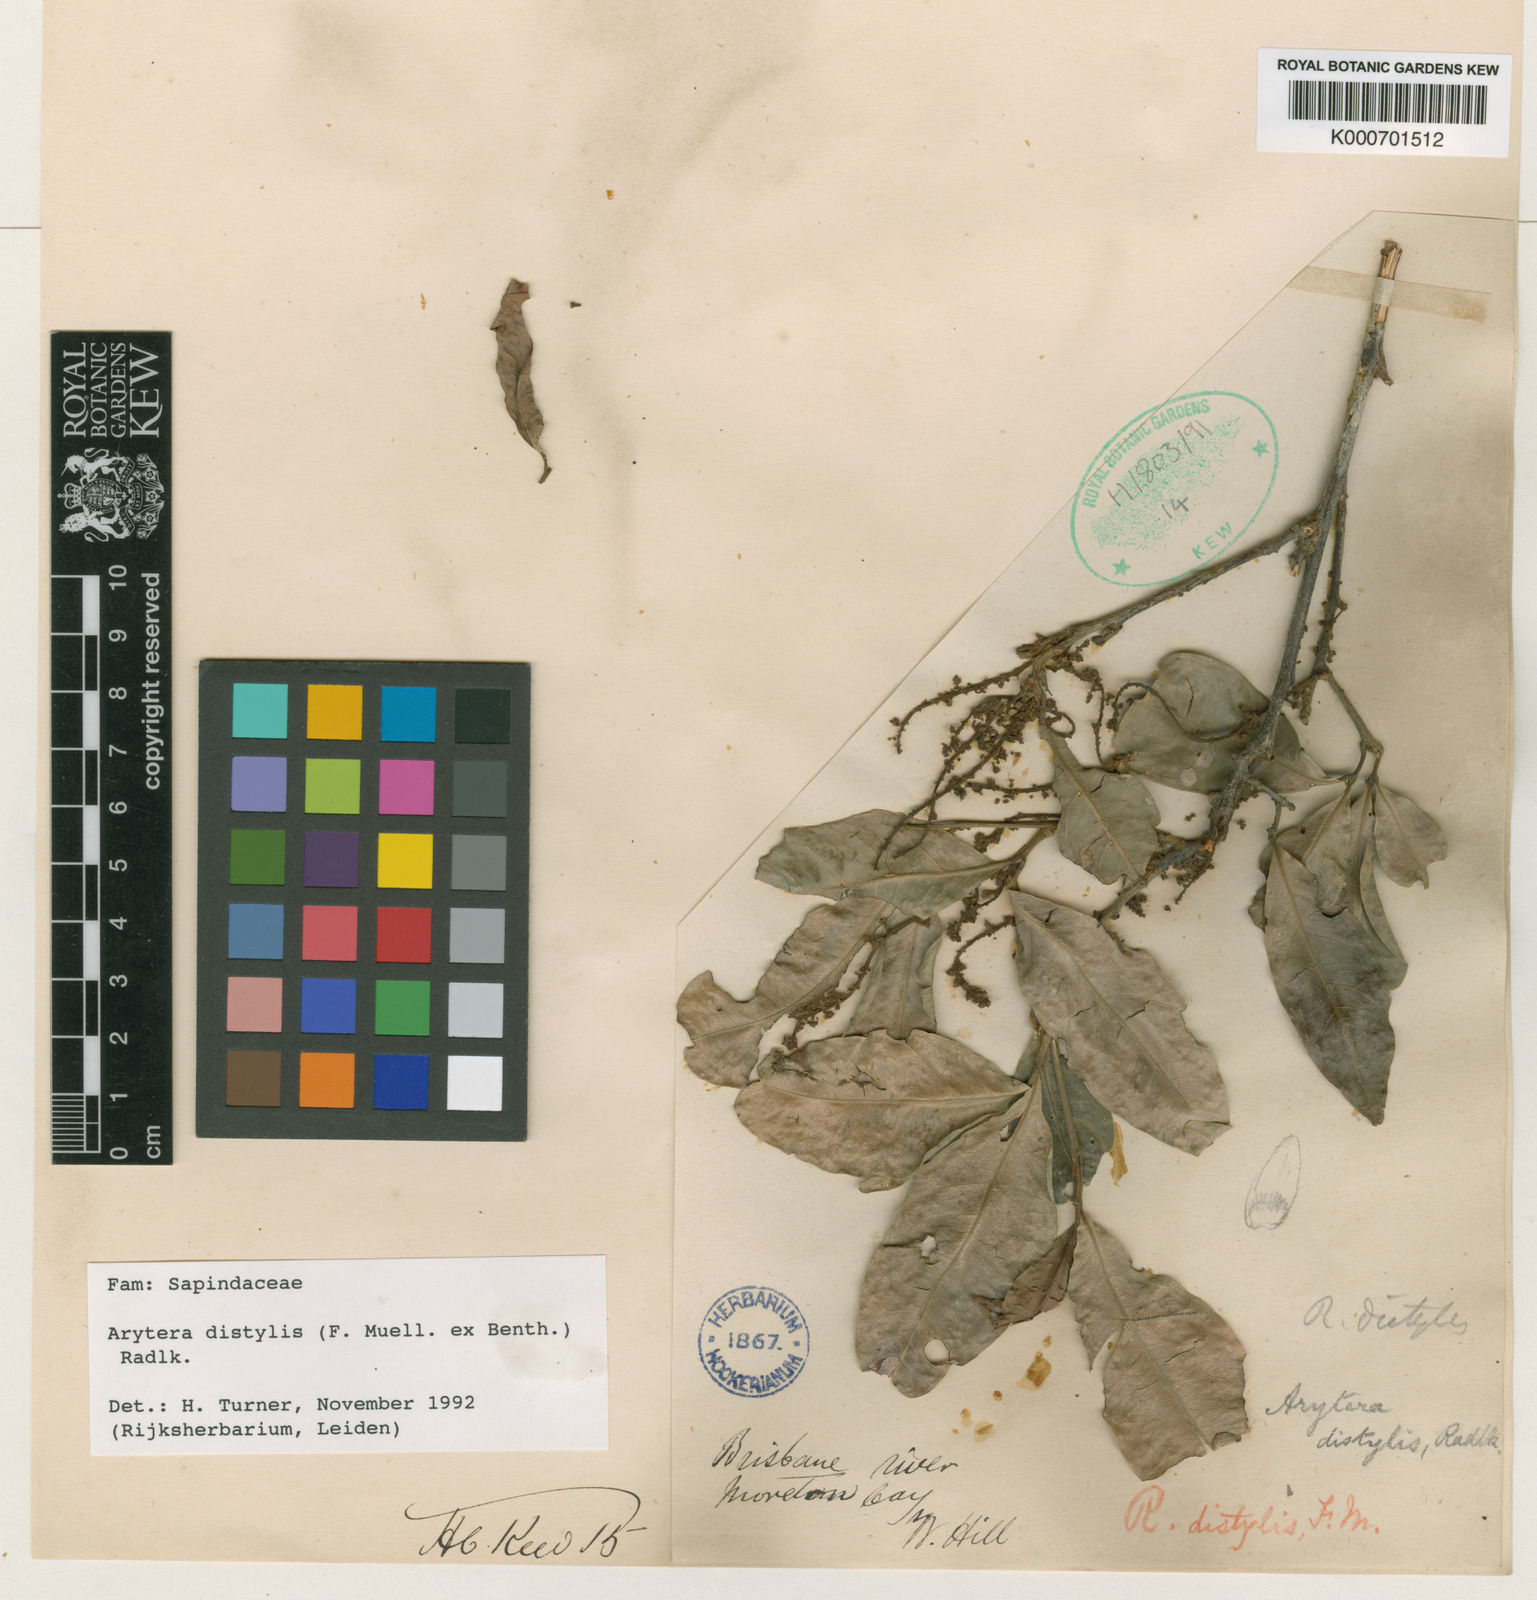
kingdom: Plantae
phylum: Tracheophyta
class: Magnoliopsida
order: Sapindales
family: Sapindaceae
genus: Arytera
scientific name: Arytera distylis
